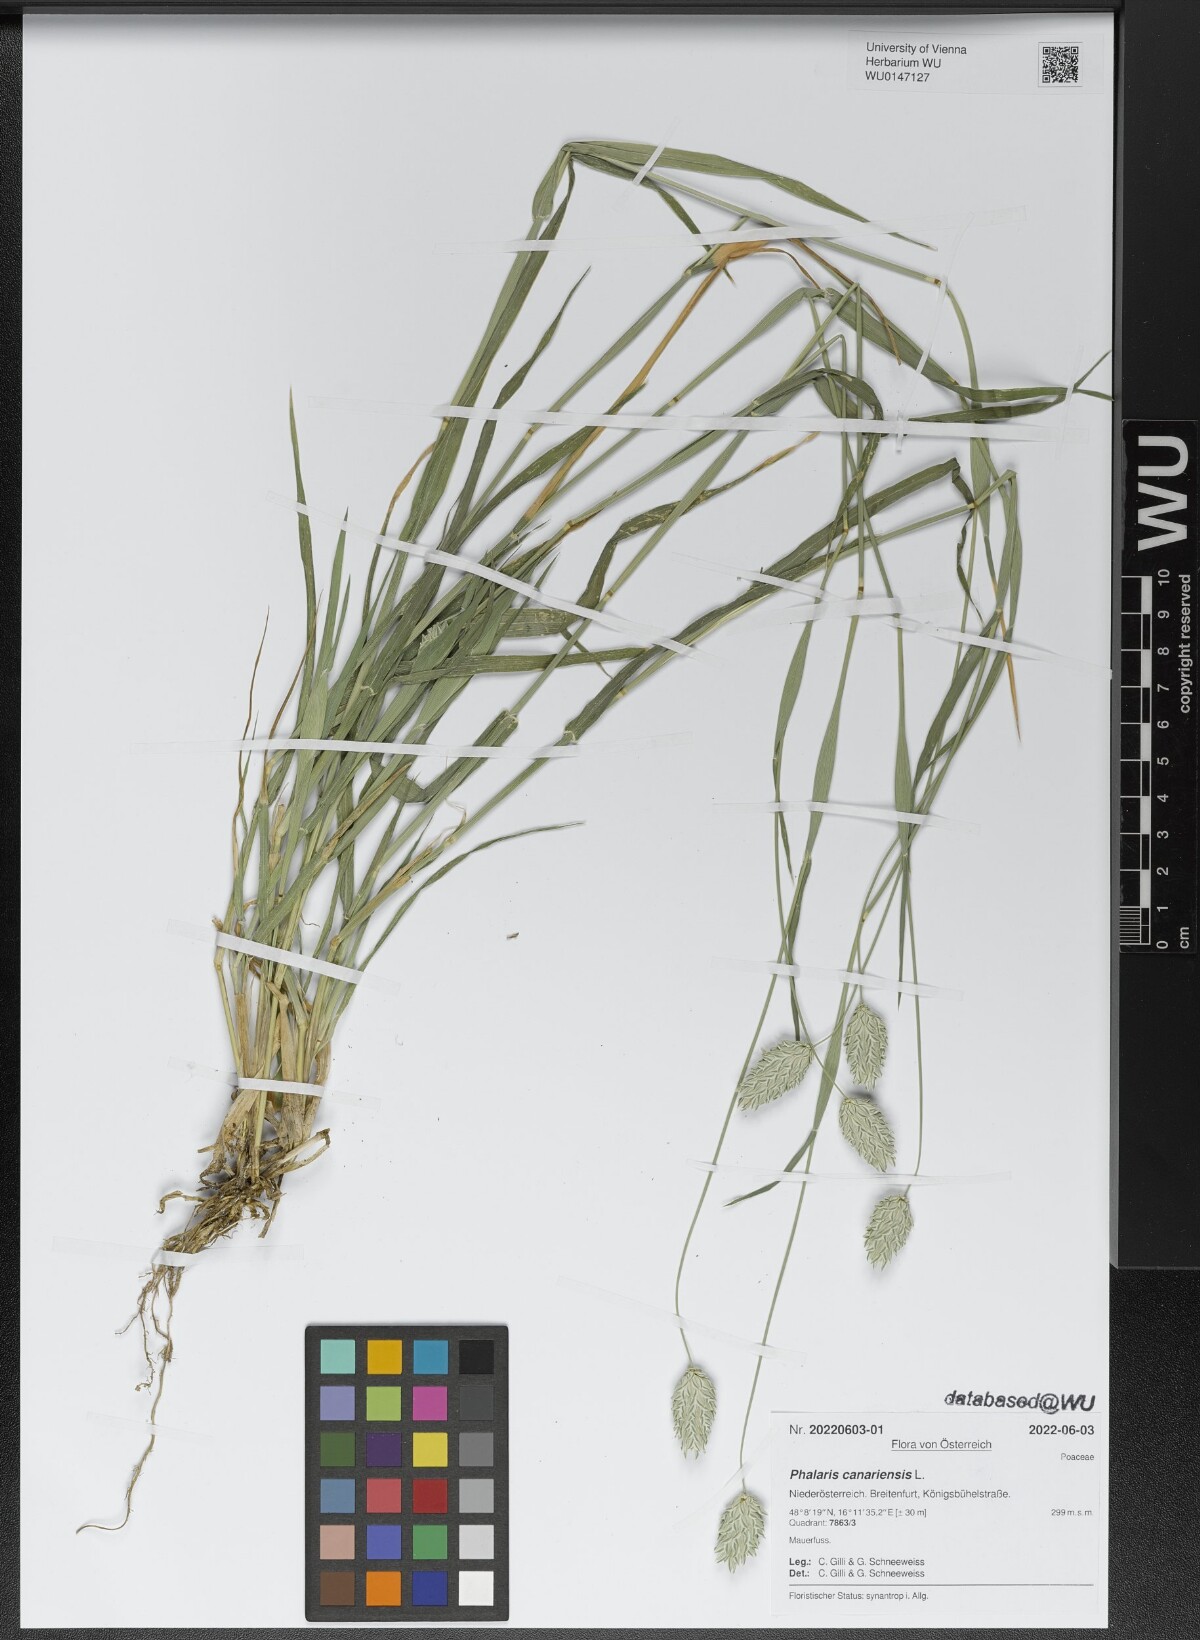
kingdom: Plantae
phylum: Tracheophyta
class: Liliopsida
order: Poales
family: Poaceae
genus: Phalaris
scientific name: Phalaris canariensis
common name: Annual canarygrass
